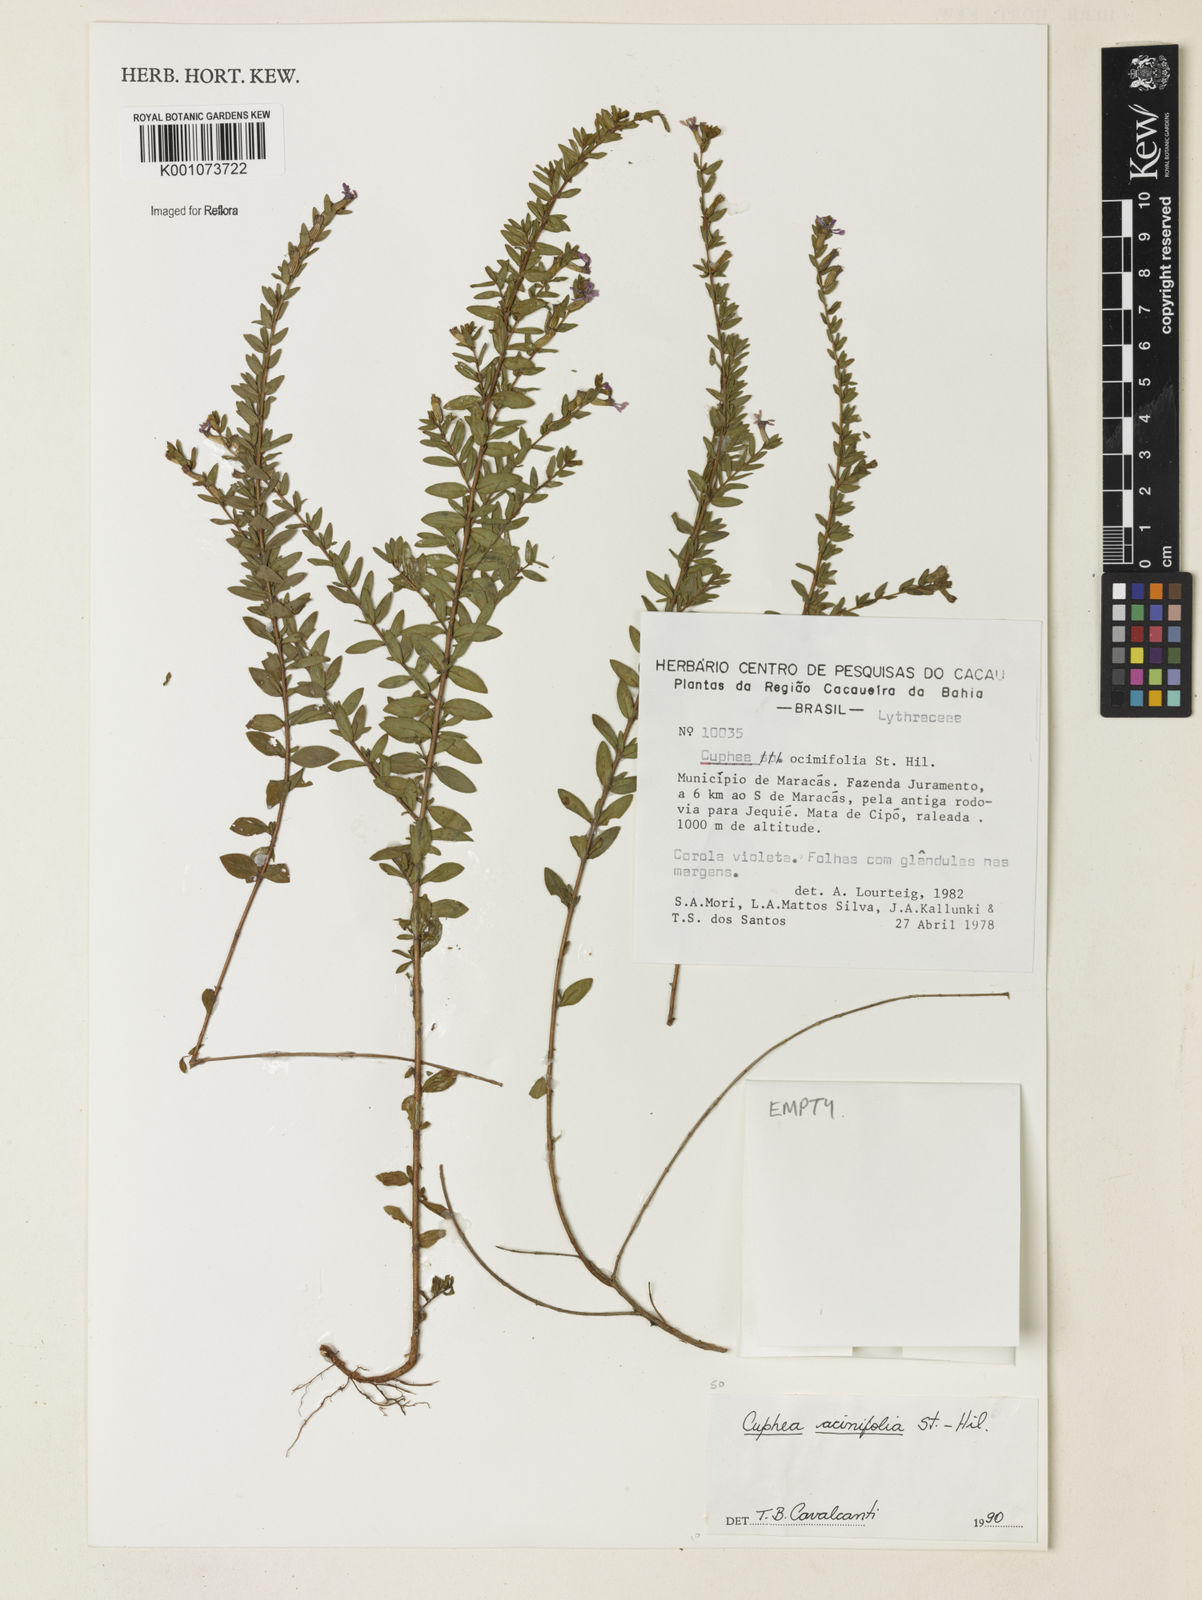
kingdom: Plantae
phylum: Tracheophyta
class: Magnoliopsida
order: Myrtales
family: Lythraceae
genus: Cuphea
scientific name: Cuphea acinifolia
